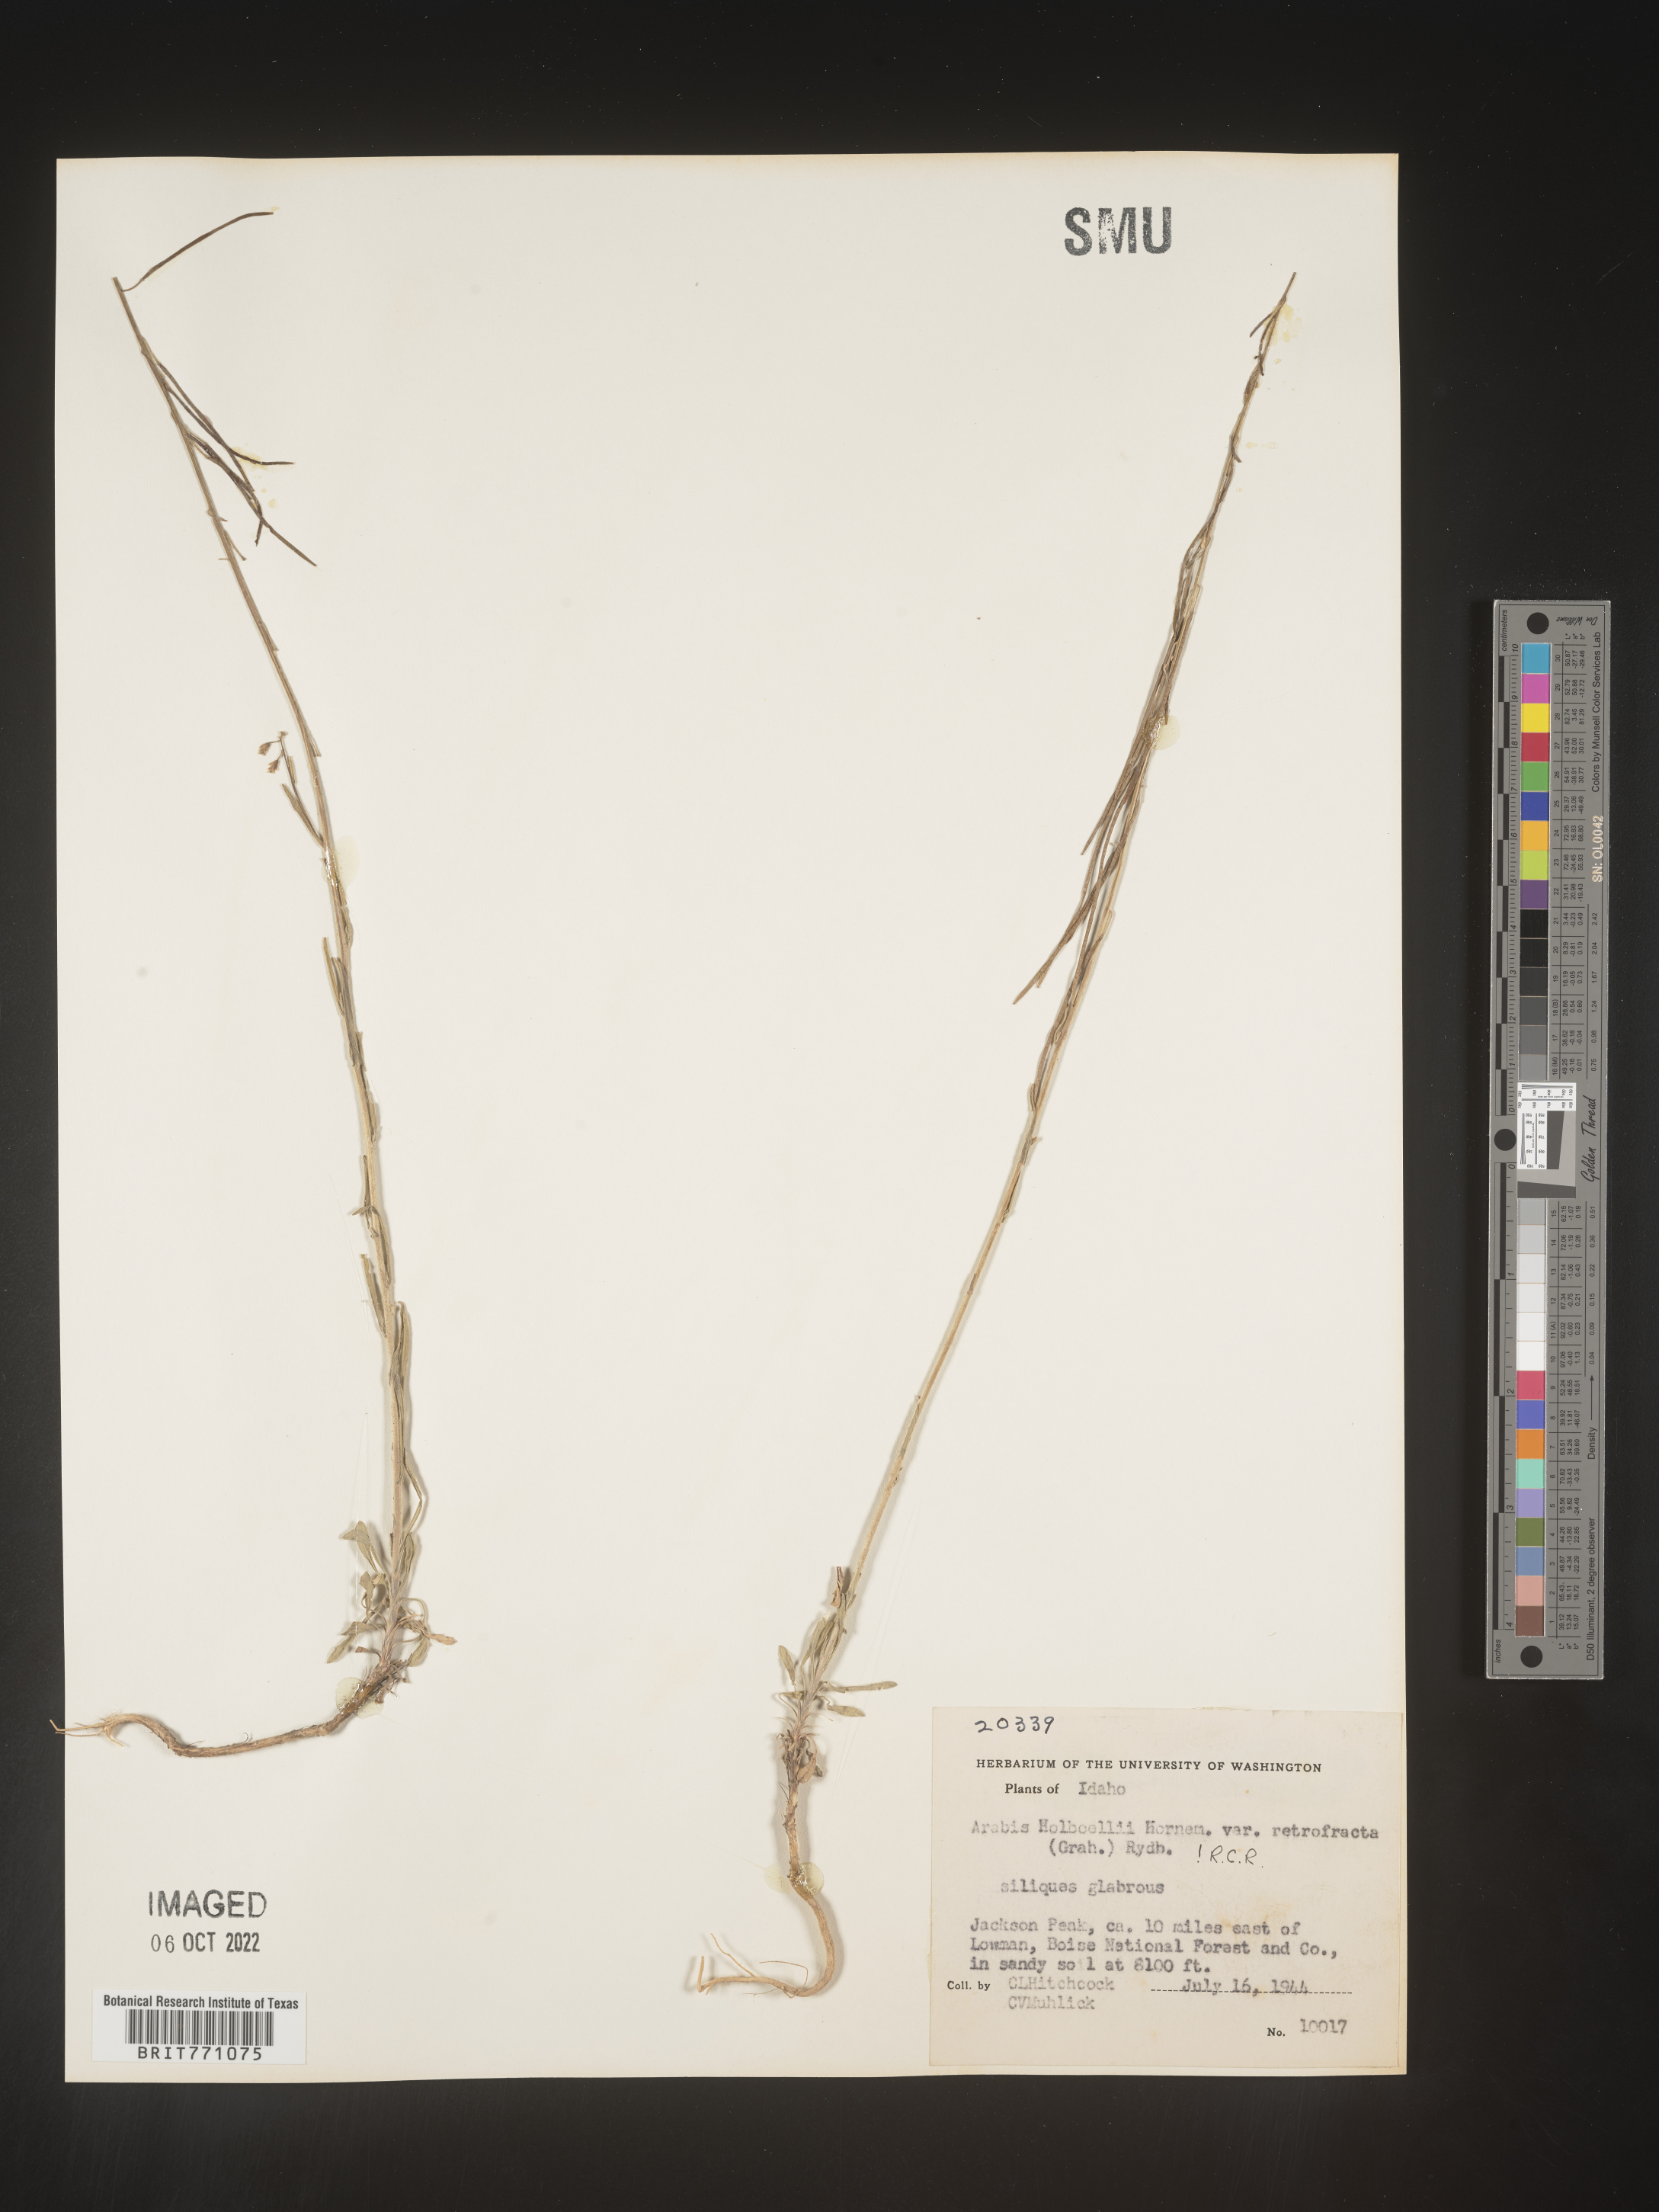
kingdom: Plantae
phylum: Tracheophyta
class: Magnoliopsida
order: Brassicales
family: Brassicaceae
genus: Boechera
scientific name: Boechera holboellii
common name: Holboell's rockcress
